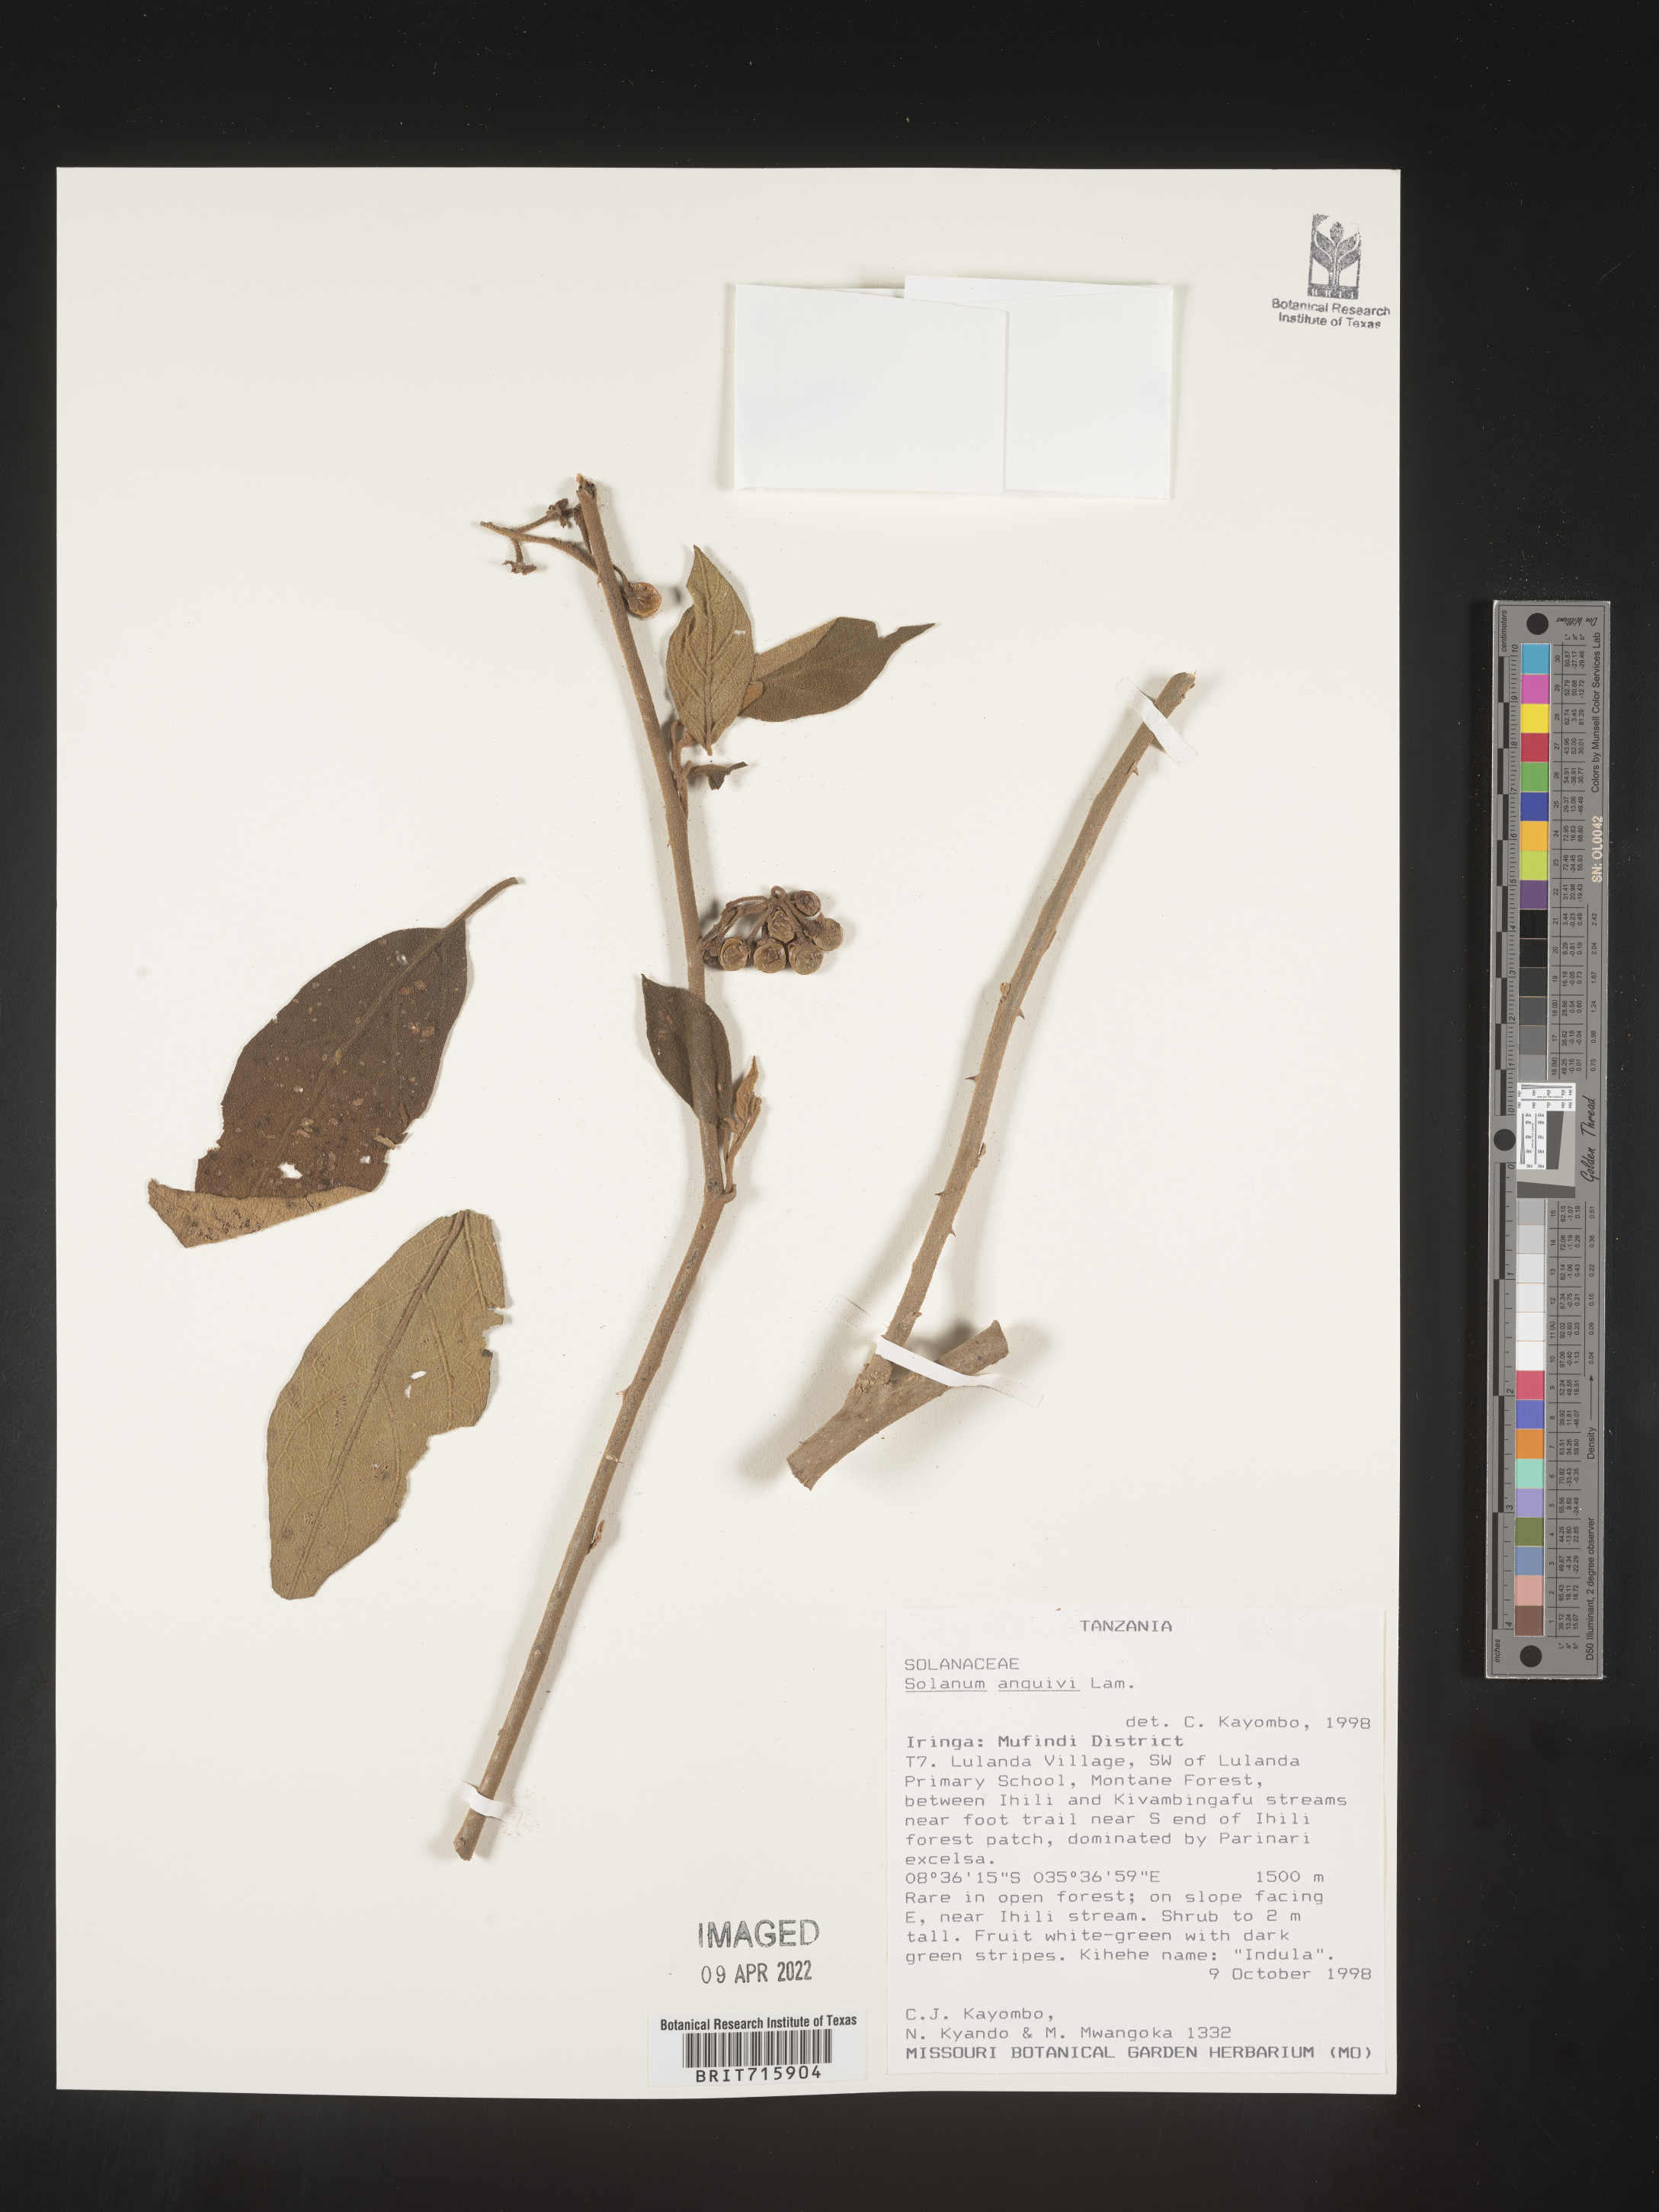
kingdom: Plantae
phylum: Tracheophyta
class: Magnoliopsida
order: Solanales
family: Solanaceae
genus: Solanum
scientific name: Solanum
